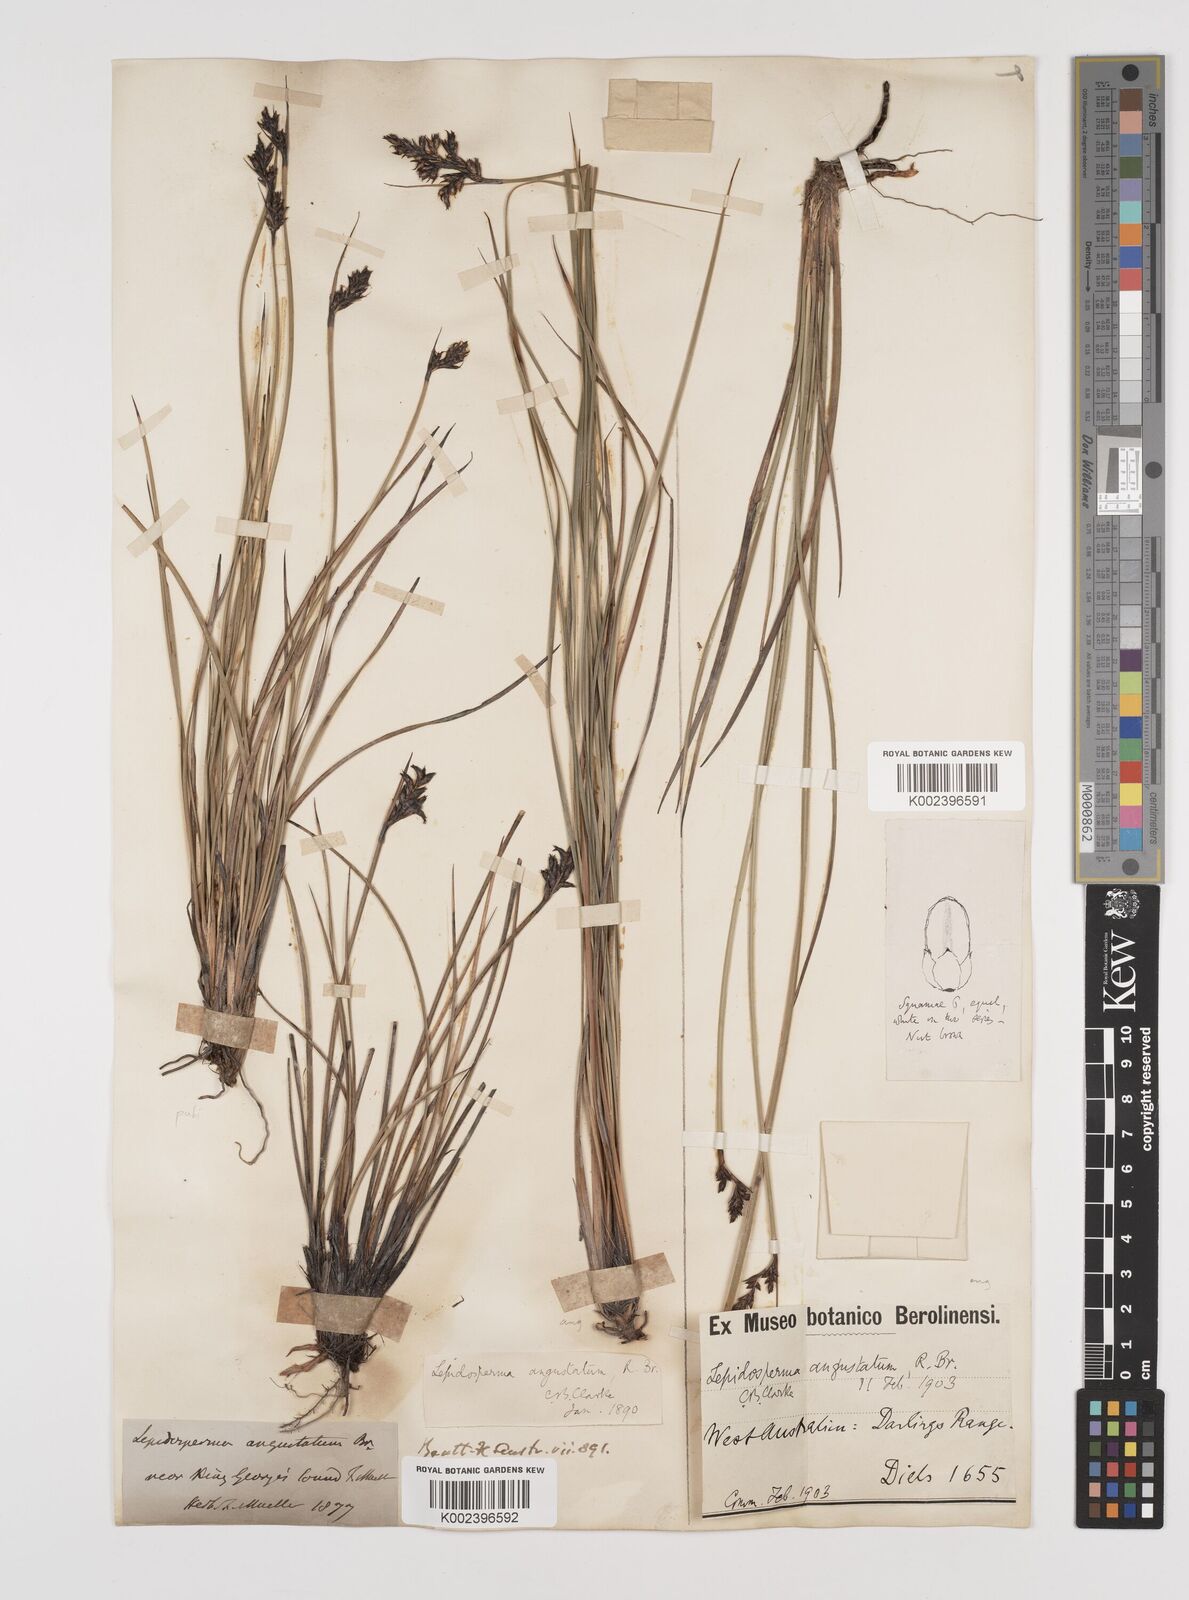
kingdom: Plantae
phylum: Tracheophyta
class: Liliopsida
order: Poales
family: Cyperaceae
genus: Lepidosperma
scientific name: Lepidosperma angustatum
